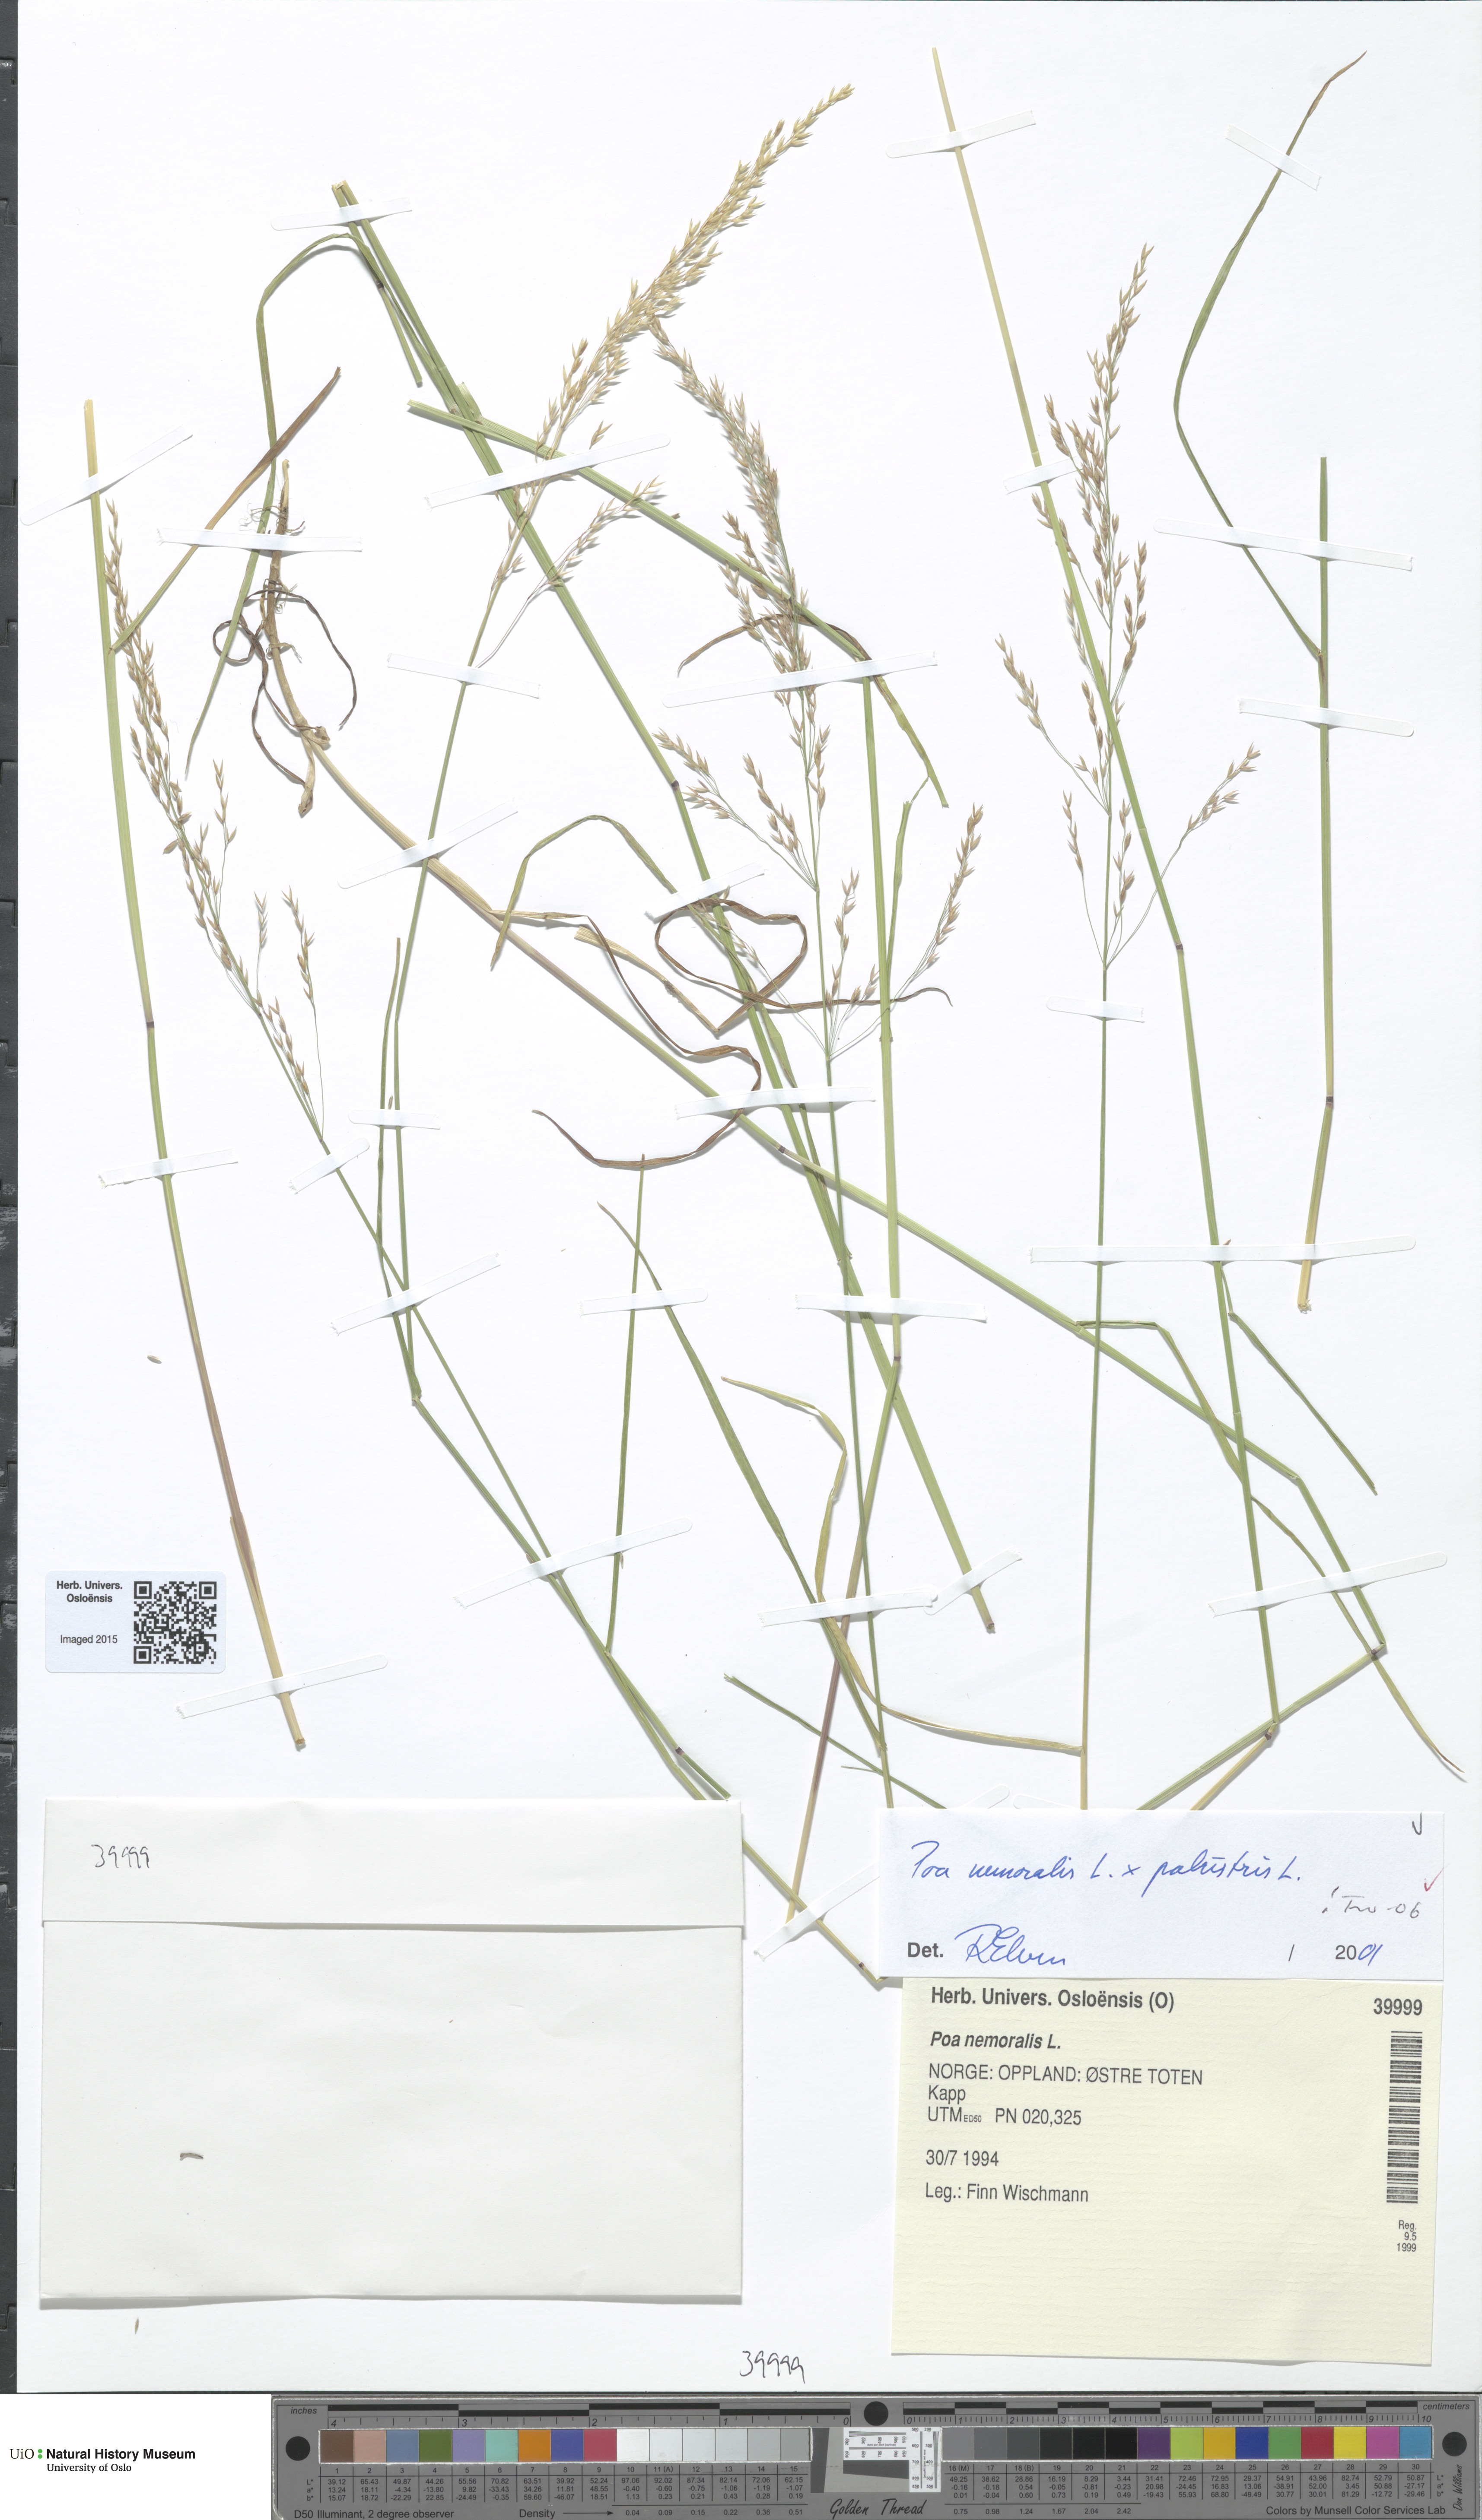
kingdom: Plantae
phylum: Tracheophyta
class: Liliopsida
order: Poales
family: Poaceae
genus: Poa
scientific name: Poa
